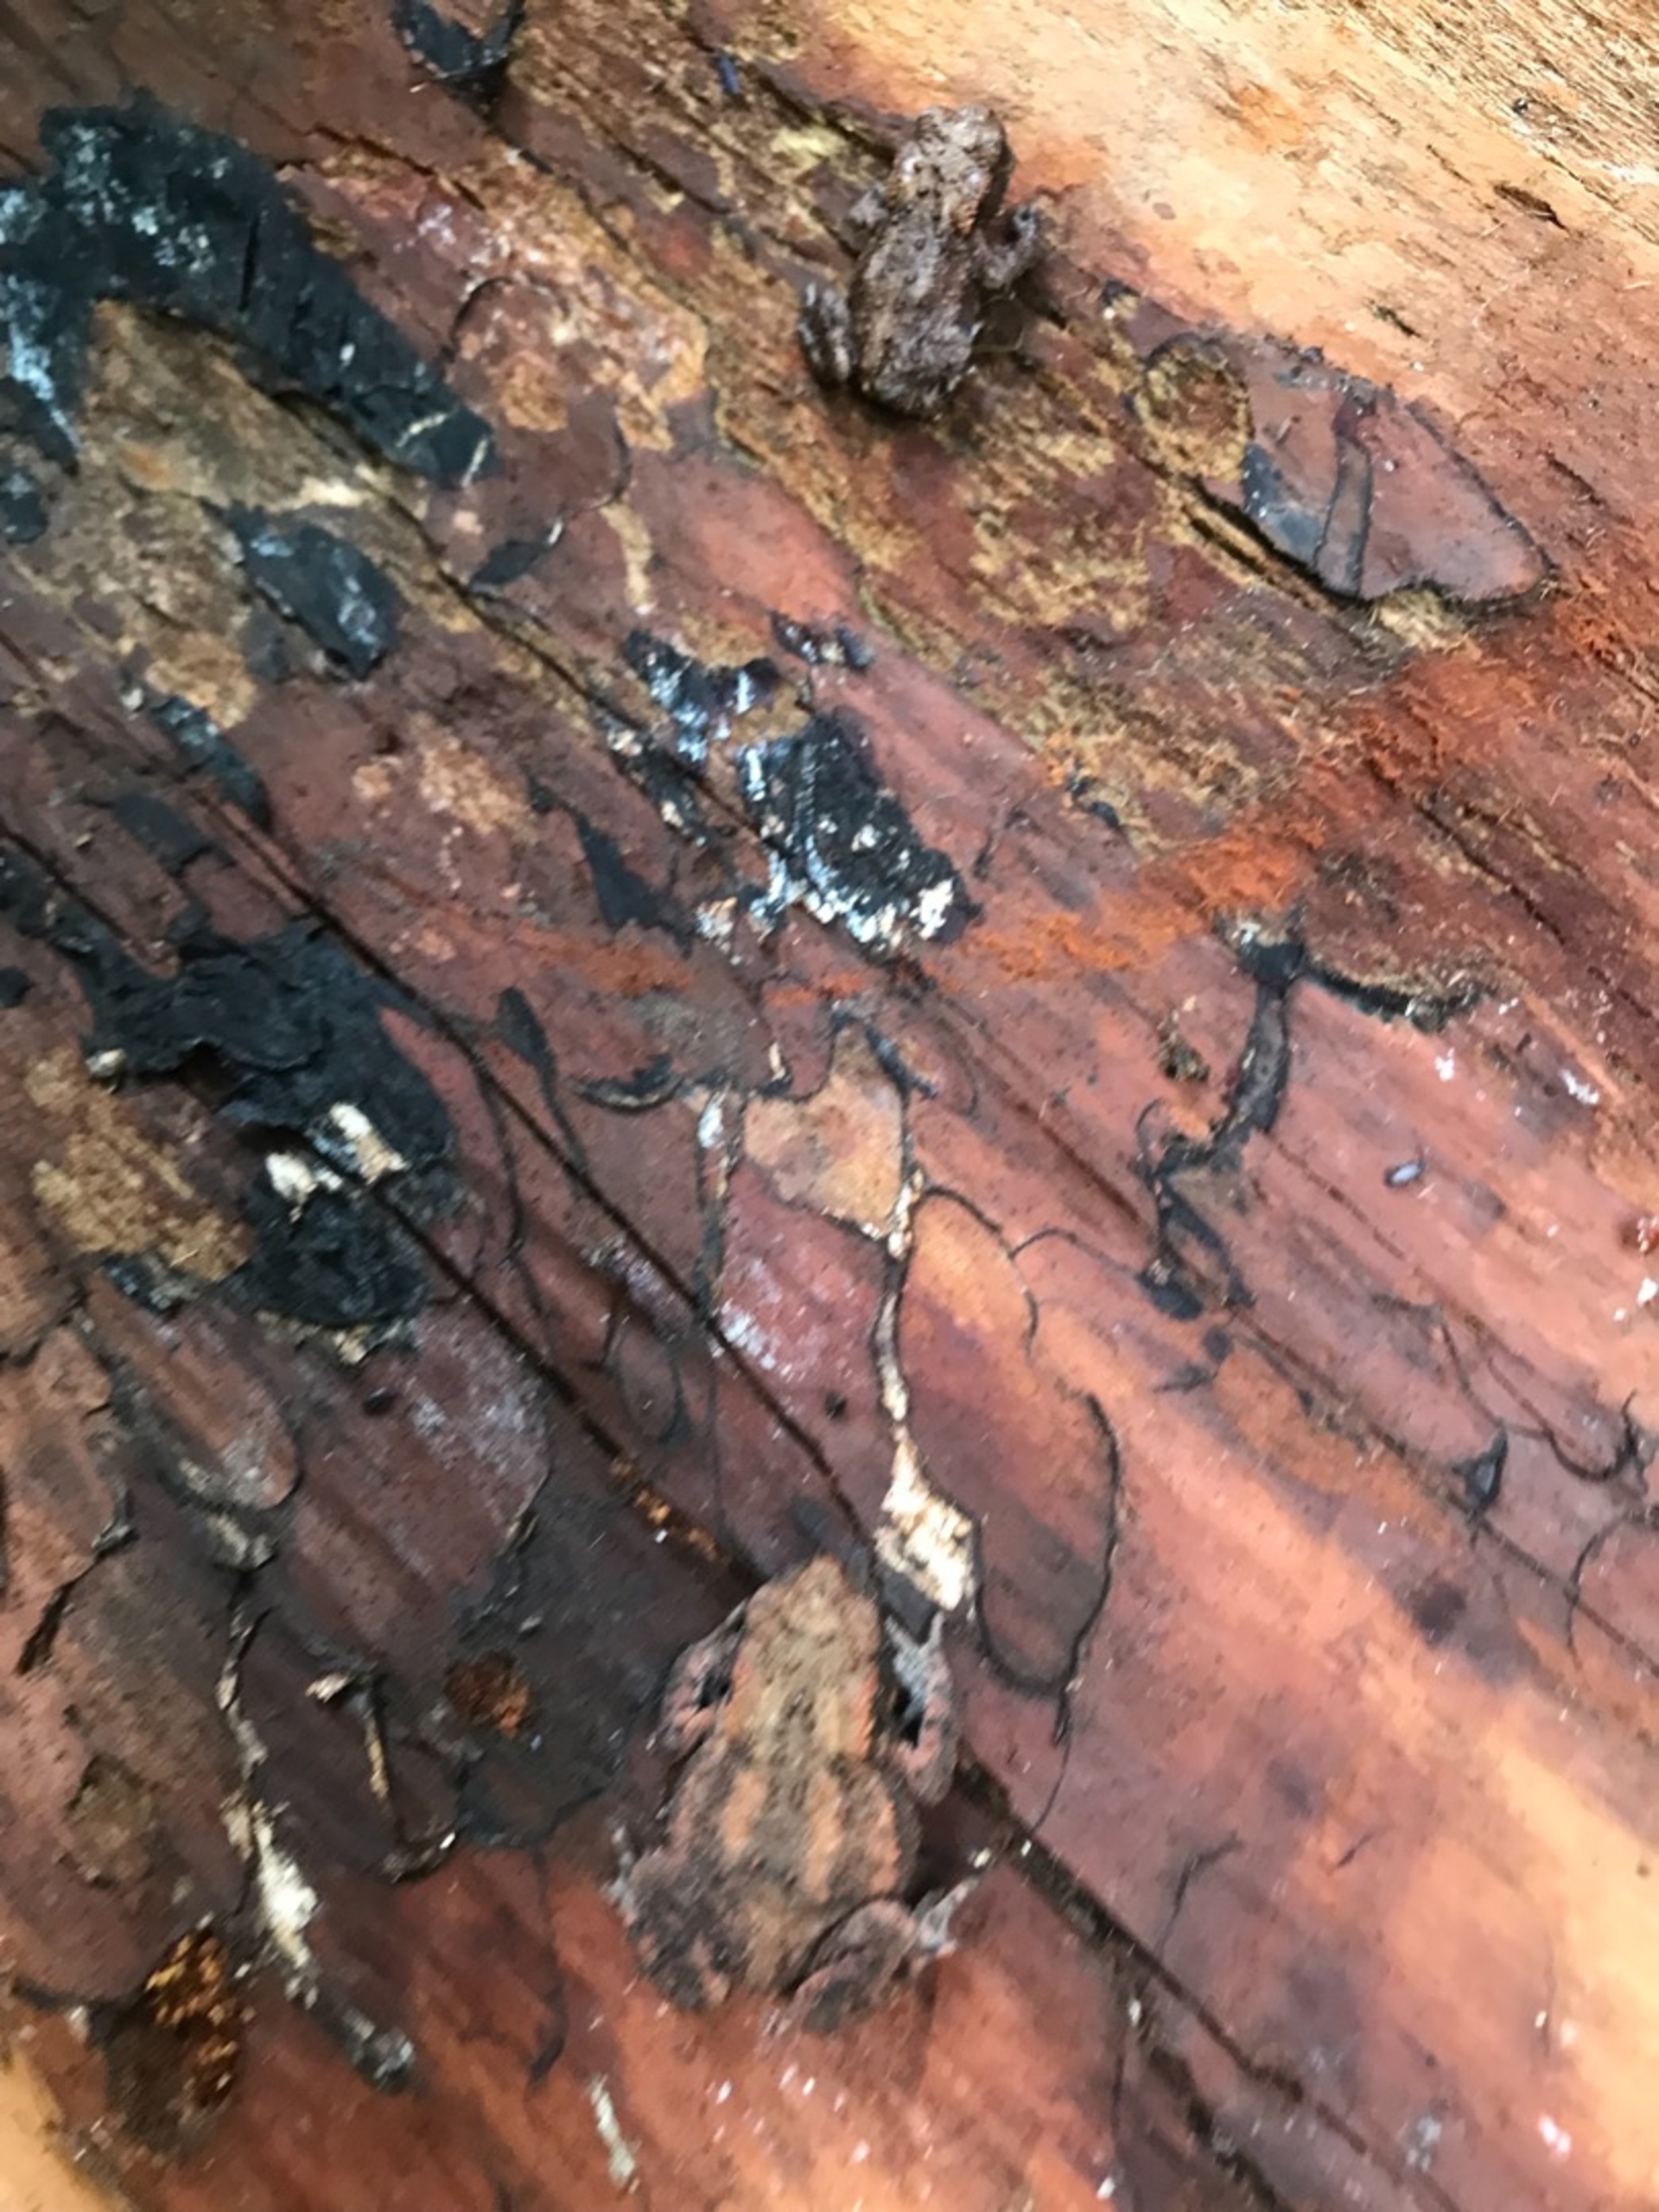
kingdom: Animalia
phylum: Chordata
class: Amphibia
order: Anura
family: Bufonidae
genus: Bufo
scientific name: Bufo bufo
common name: Skrubtudse
